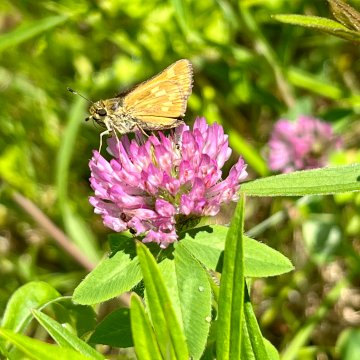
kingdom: Animalia
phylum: Arthropoda
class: Insecta
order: Lepidoptera
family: Hesperiidae
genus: Hesperia
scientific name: Hesperia sassacus
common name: Sassacus Skipper
